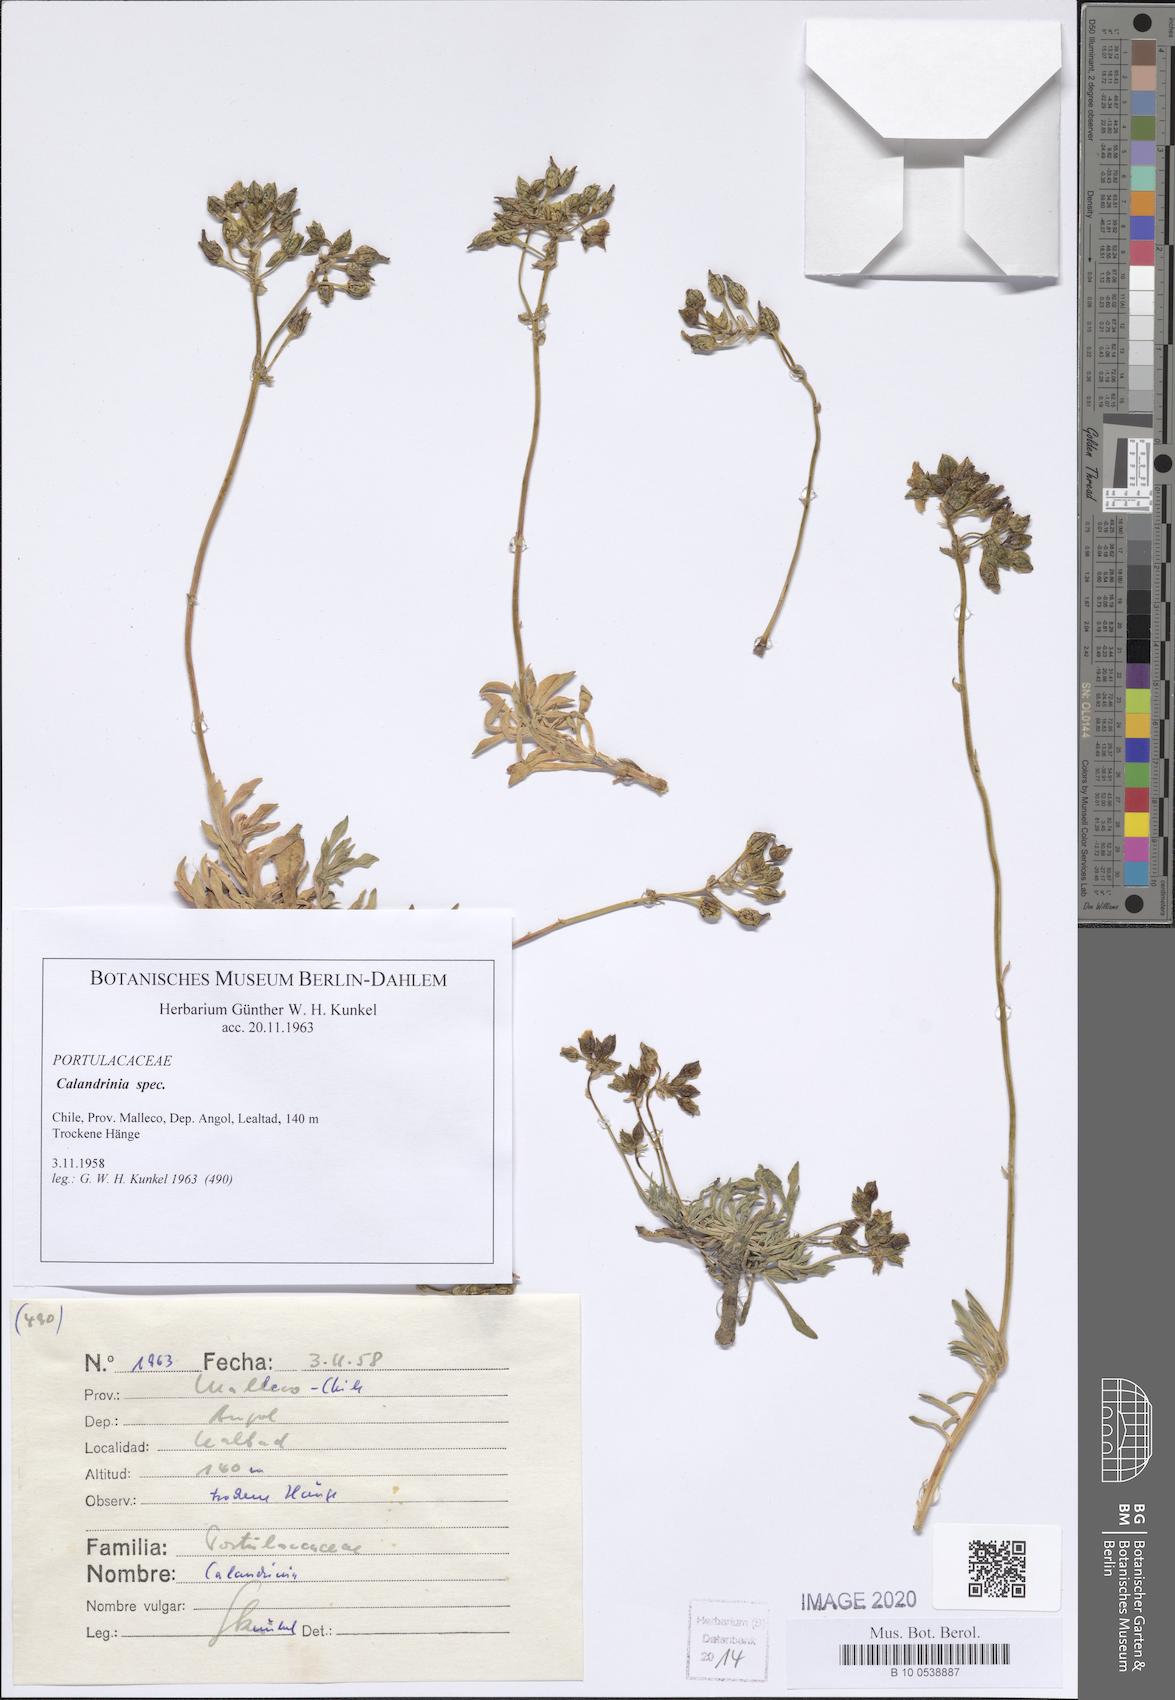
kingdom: Plantae
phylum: Tracheophyta
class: Magnoliopsida
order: Caryophyllales
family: Montiaceae
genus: Calandrinia
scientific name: Calandrinia
